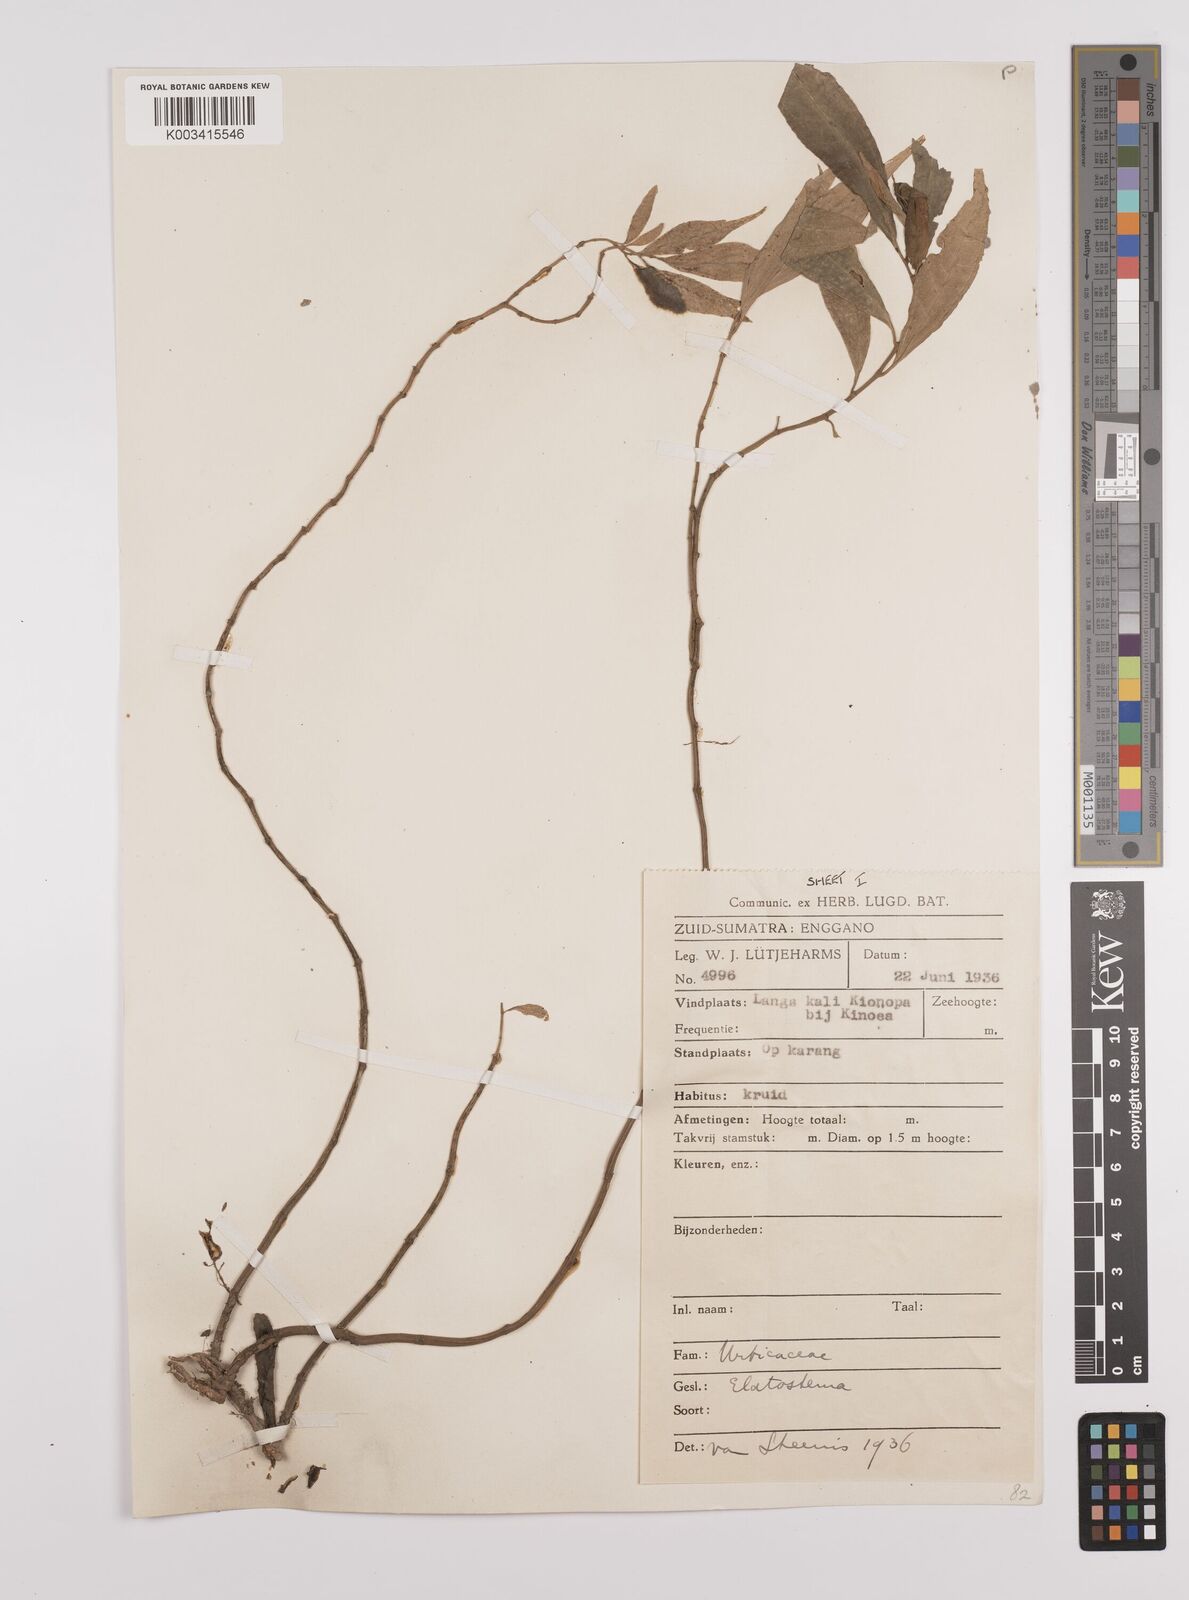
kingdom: Plantae
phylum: Tracheophyta
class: Magnoliopsida
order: Rosales
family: Urticaceae
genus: Elatostema
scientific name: Elatostema
